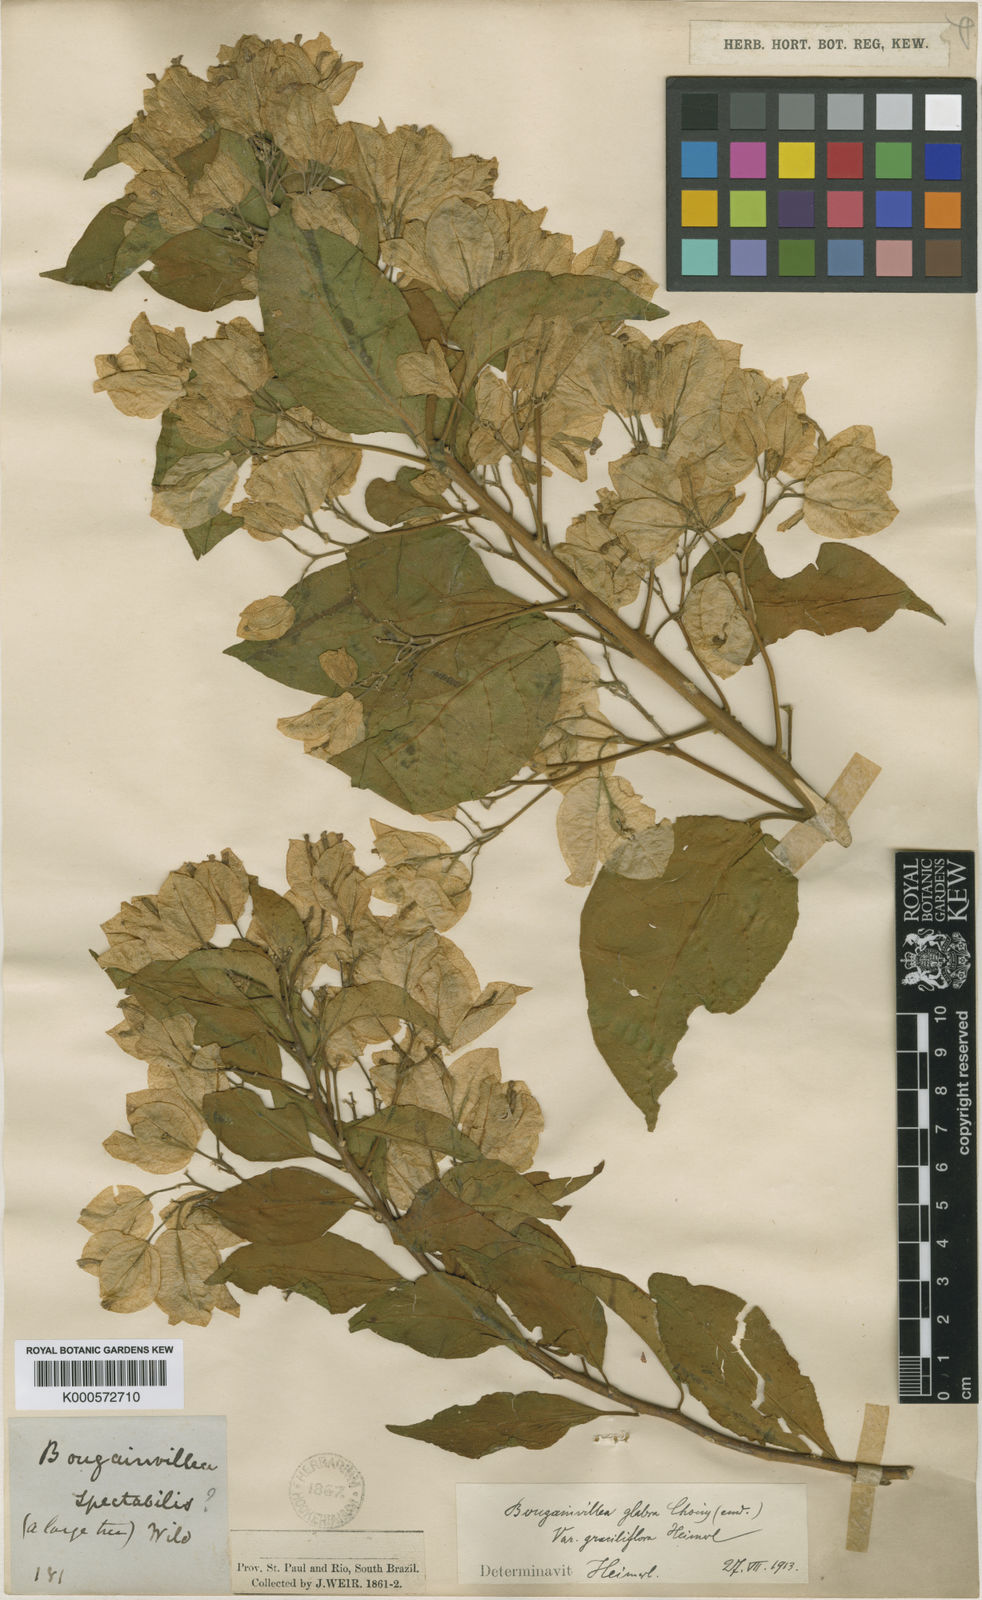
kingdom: Plantae
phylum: Tracheophyta
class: Magnoliopsida
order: Caryophyllales
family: Nyctaginaceae
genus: Bougainvillea
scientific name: Bougainvillea glabra
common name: Paperflower
